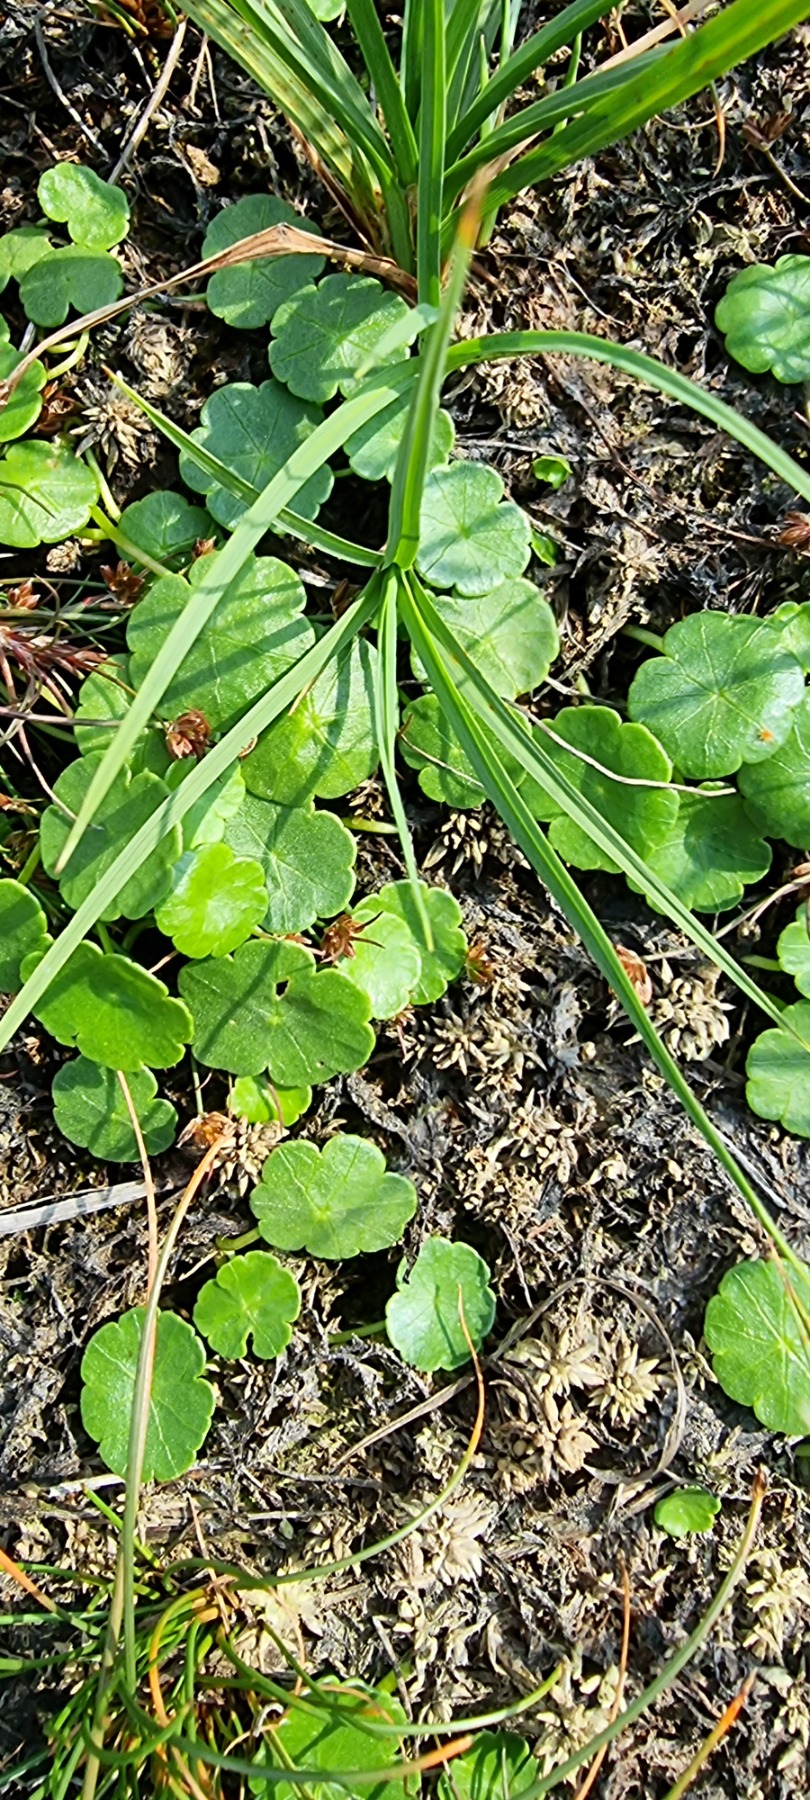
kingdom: Plantae
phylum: Tracheophyta
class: Magnoliopsida
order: Apiales
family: Araliaceae
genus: Hydrocotyle
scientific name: Hydrocotyle vulgaris
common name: Vandnavle
